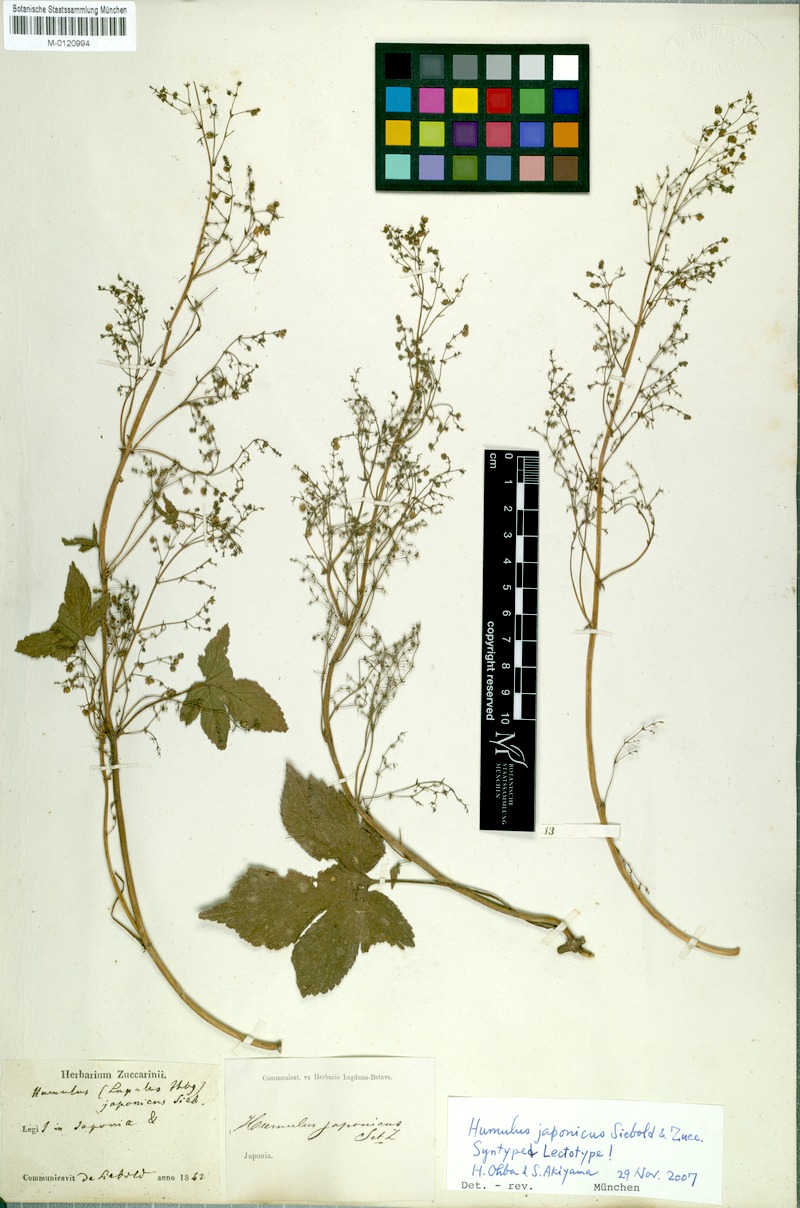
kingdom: Plantae
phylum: Tracheophyta
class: Magnoliopsida
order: Rosales
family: Cannabaceae
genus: Humulus
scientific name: Humulus scandens
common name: Japanese hop
